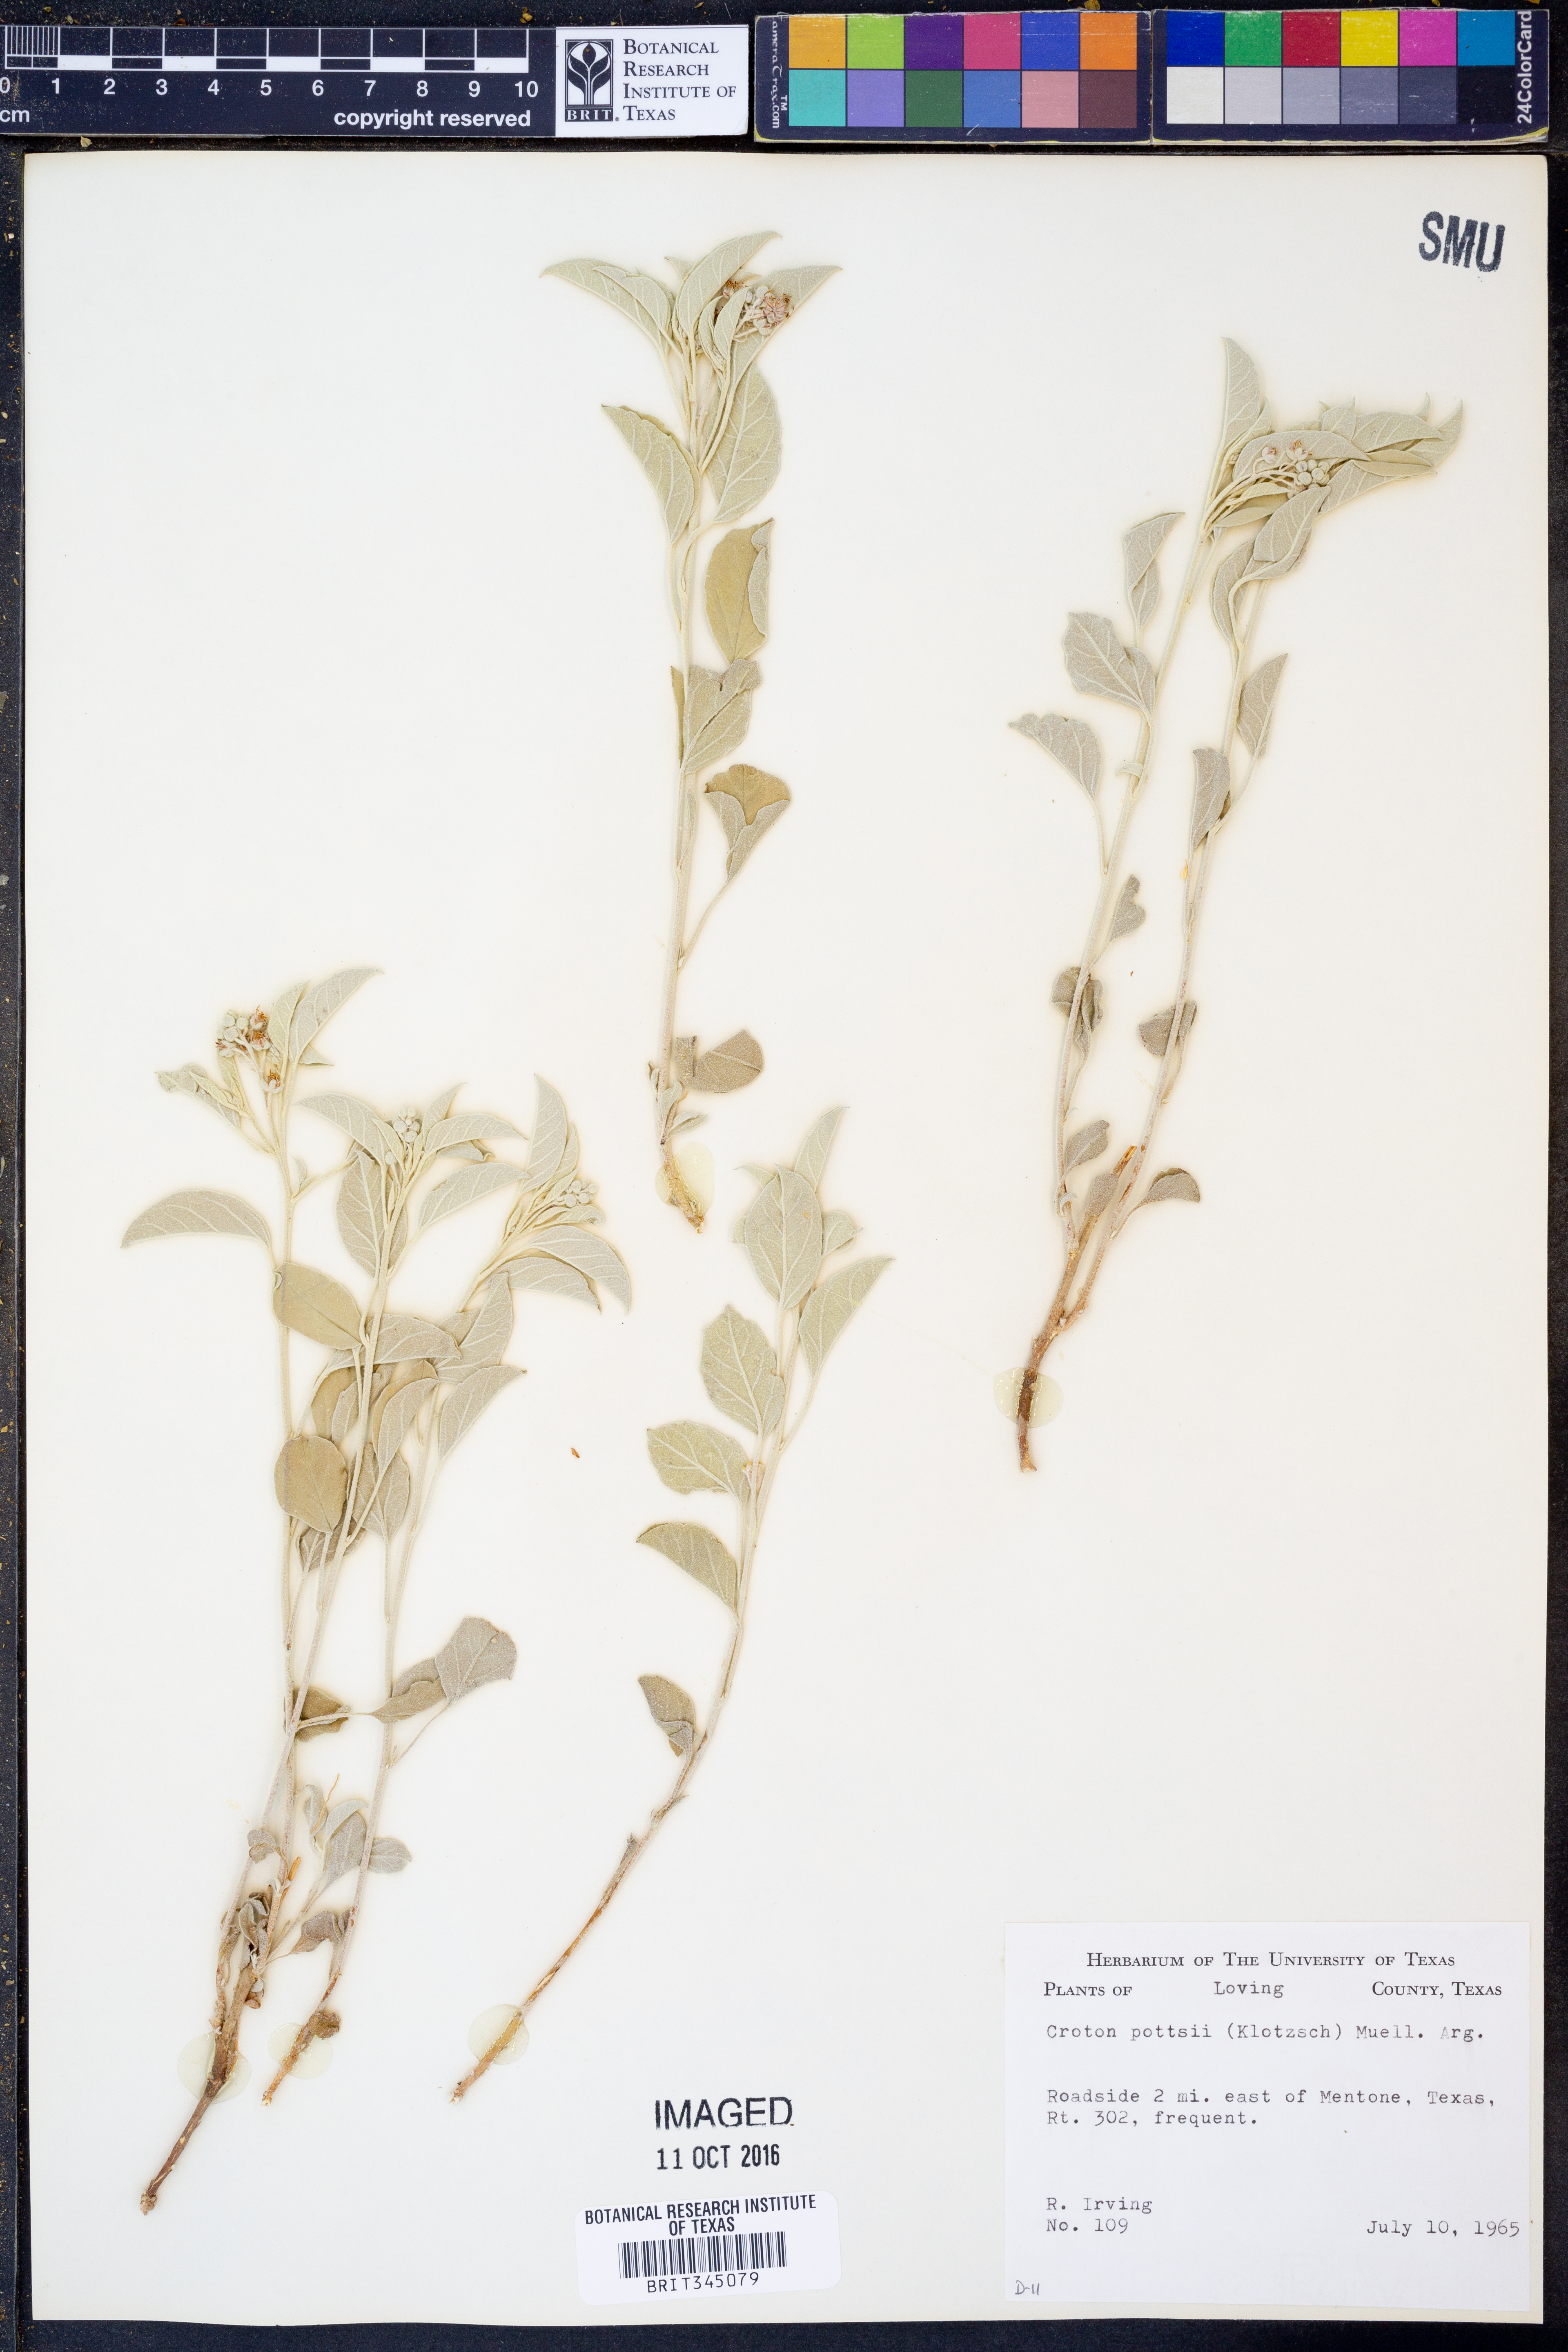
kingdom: Plantae
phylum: Tracheophyta
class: Magnoliopsida
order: Malpighiales
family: Euphorbiaceae
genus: Croton
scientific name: Croton pottsii
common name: Leatherweed
